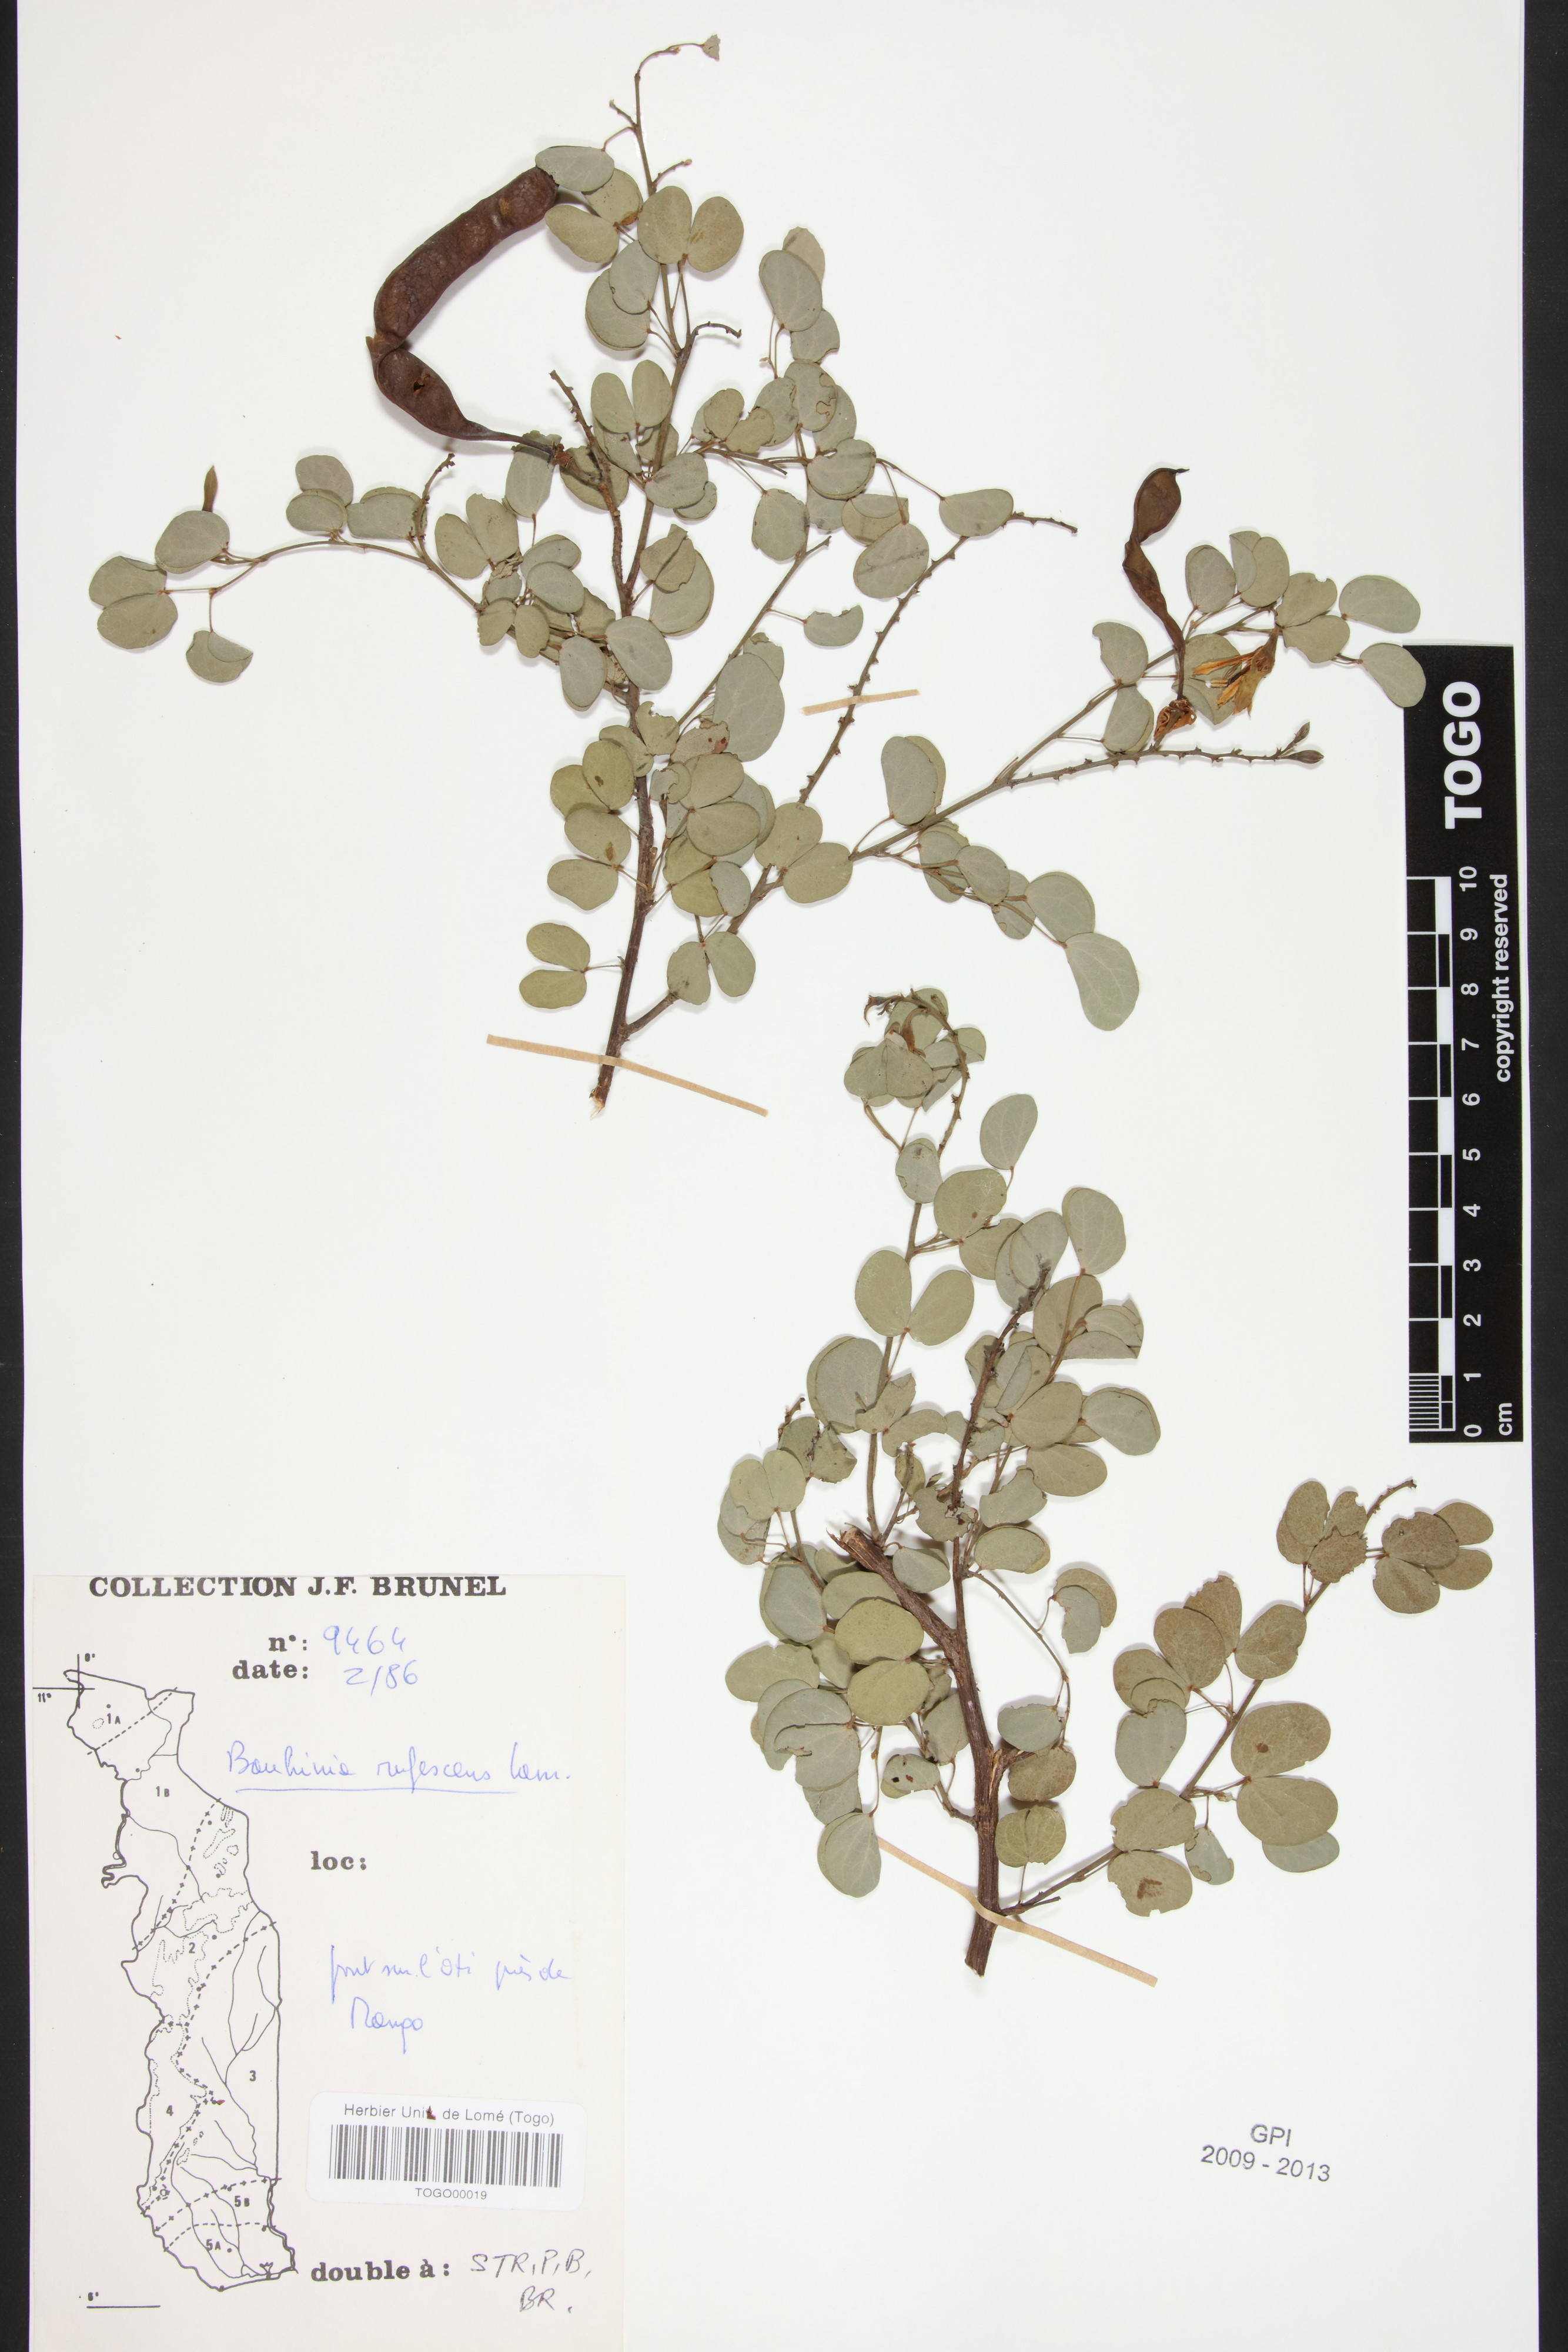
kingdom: Plantae
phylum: Tracheophyta
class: Magnoliopsida
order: Fabales
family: Fabaceae
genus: Bauhinia
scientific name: Bauhinia rufescens
